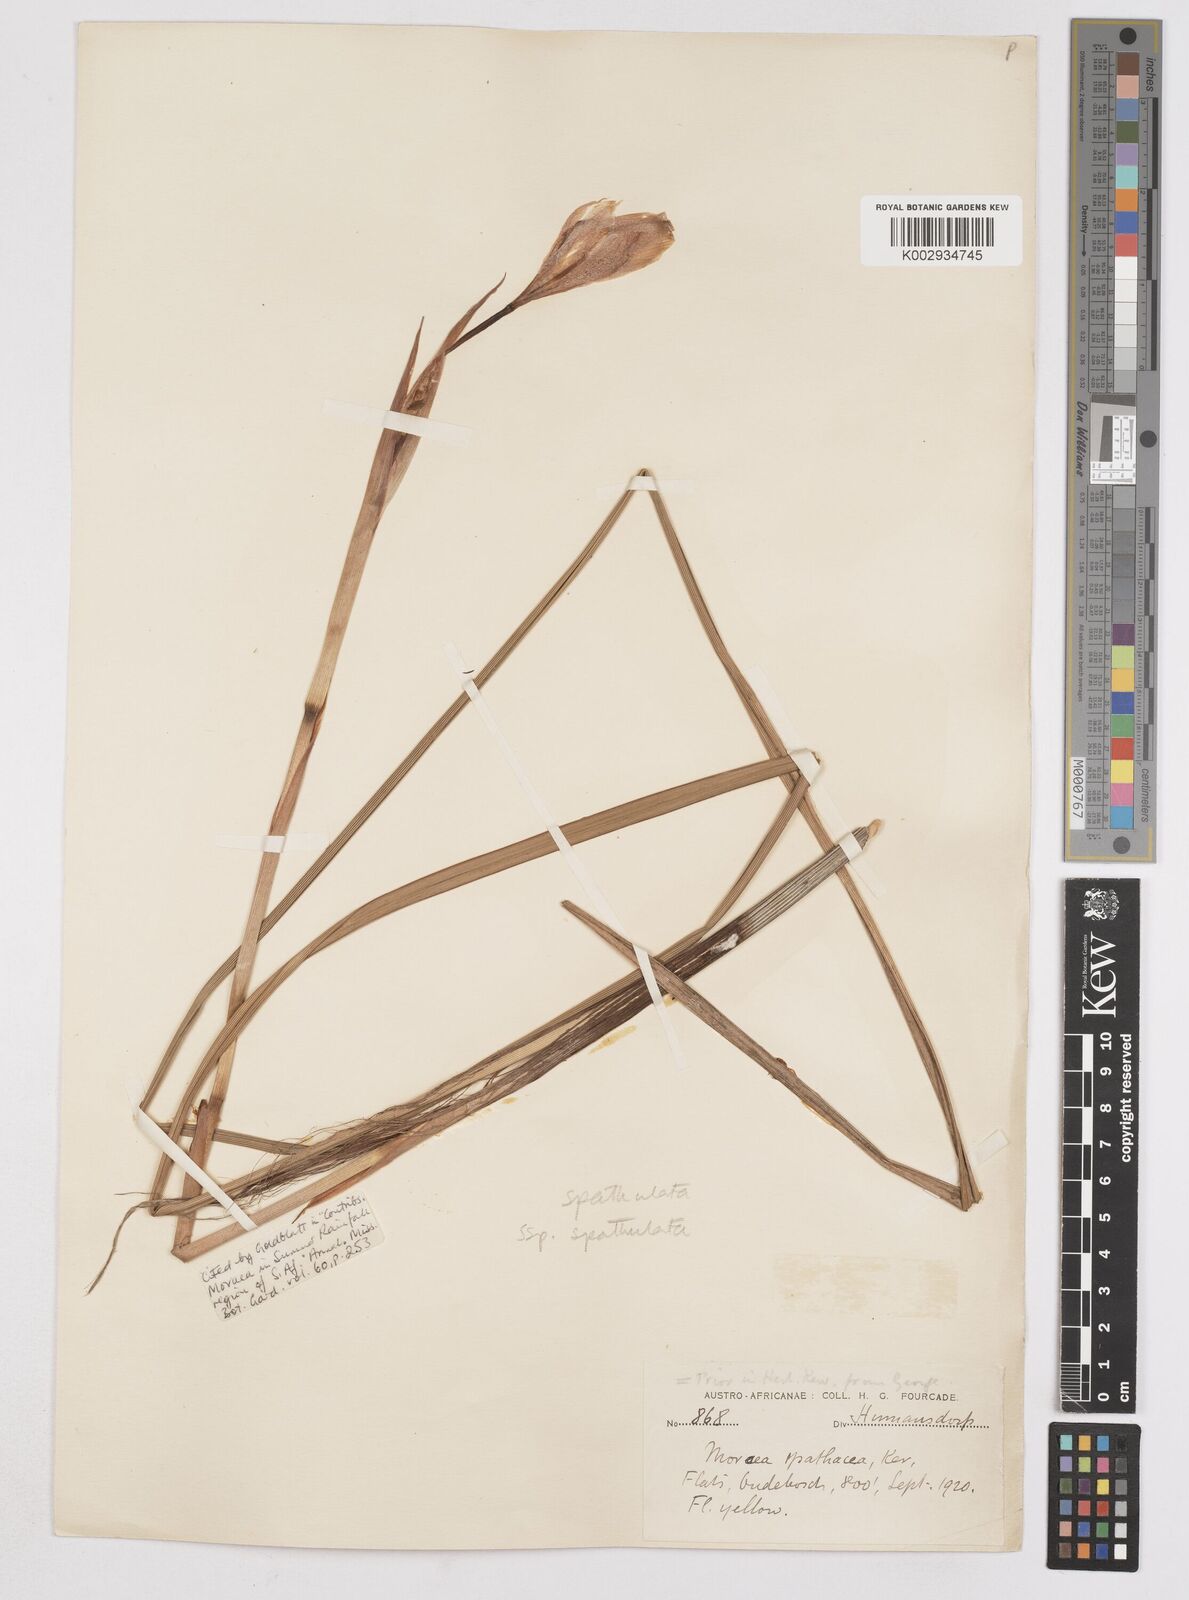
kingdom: Plantae
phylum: Tracheophyta
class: Liliopsida
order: Asparagales
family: Iridaceae
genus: Moraea
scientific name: Moraea spathulata
